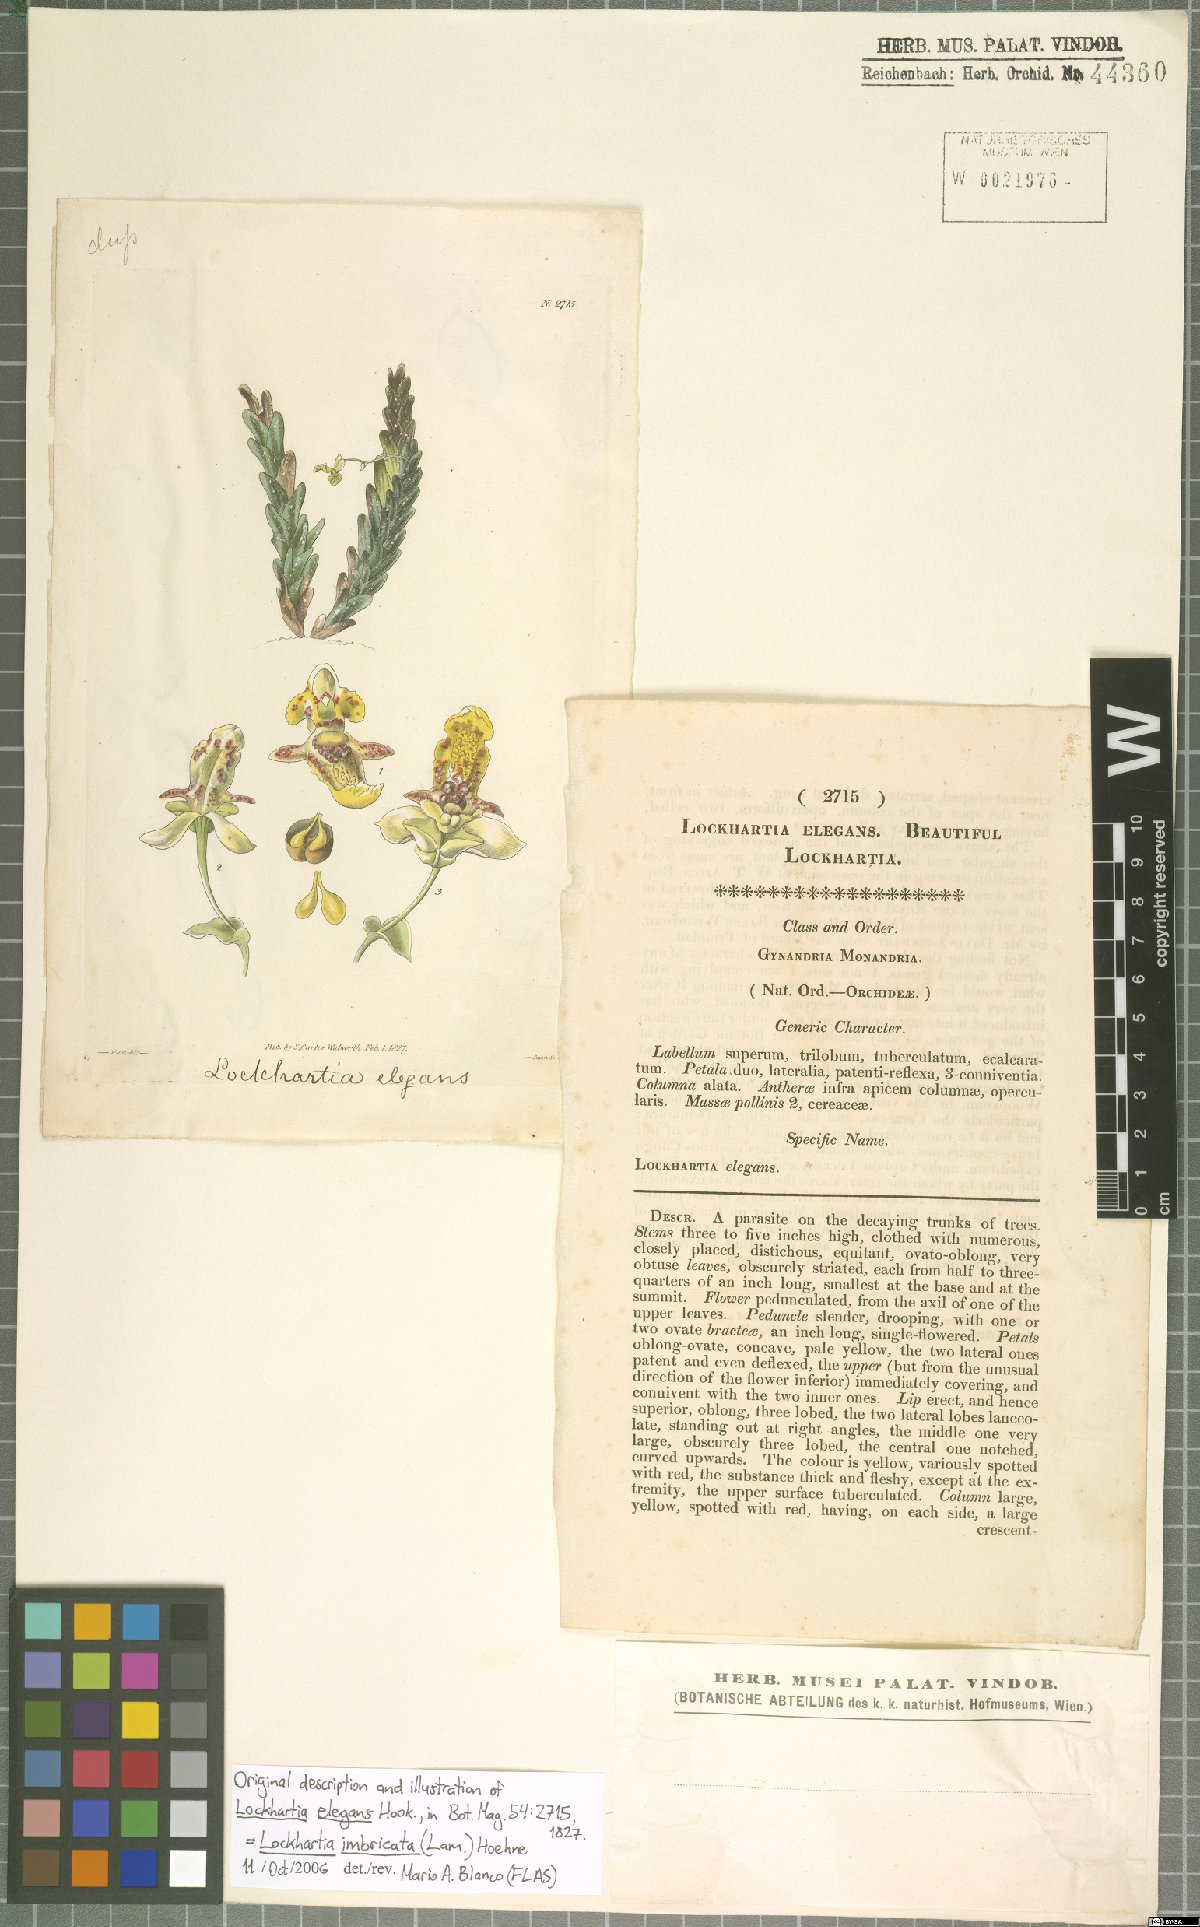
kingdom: Plantae
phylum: Tracheophyta
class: Liliopsida
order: Asparagales
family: Orchidaceae
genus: Lockhartia
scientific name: Lockhartia imbricata
